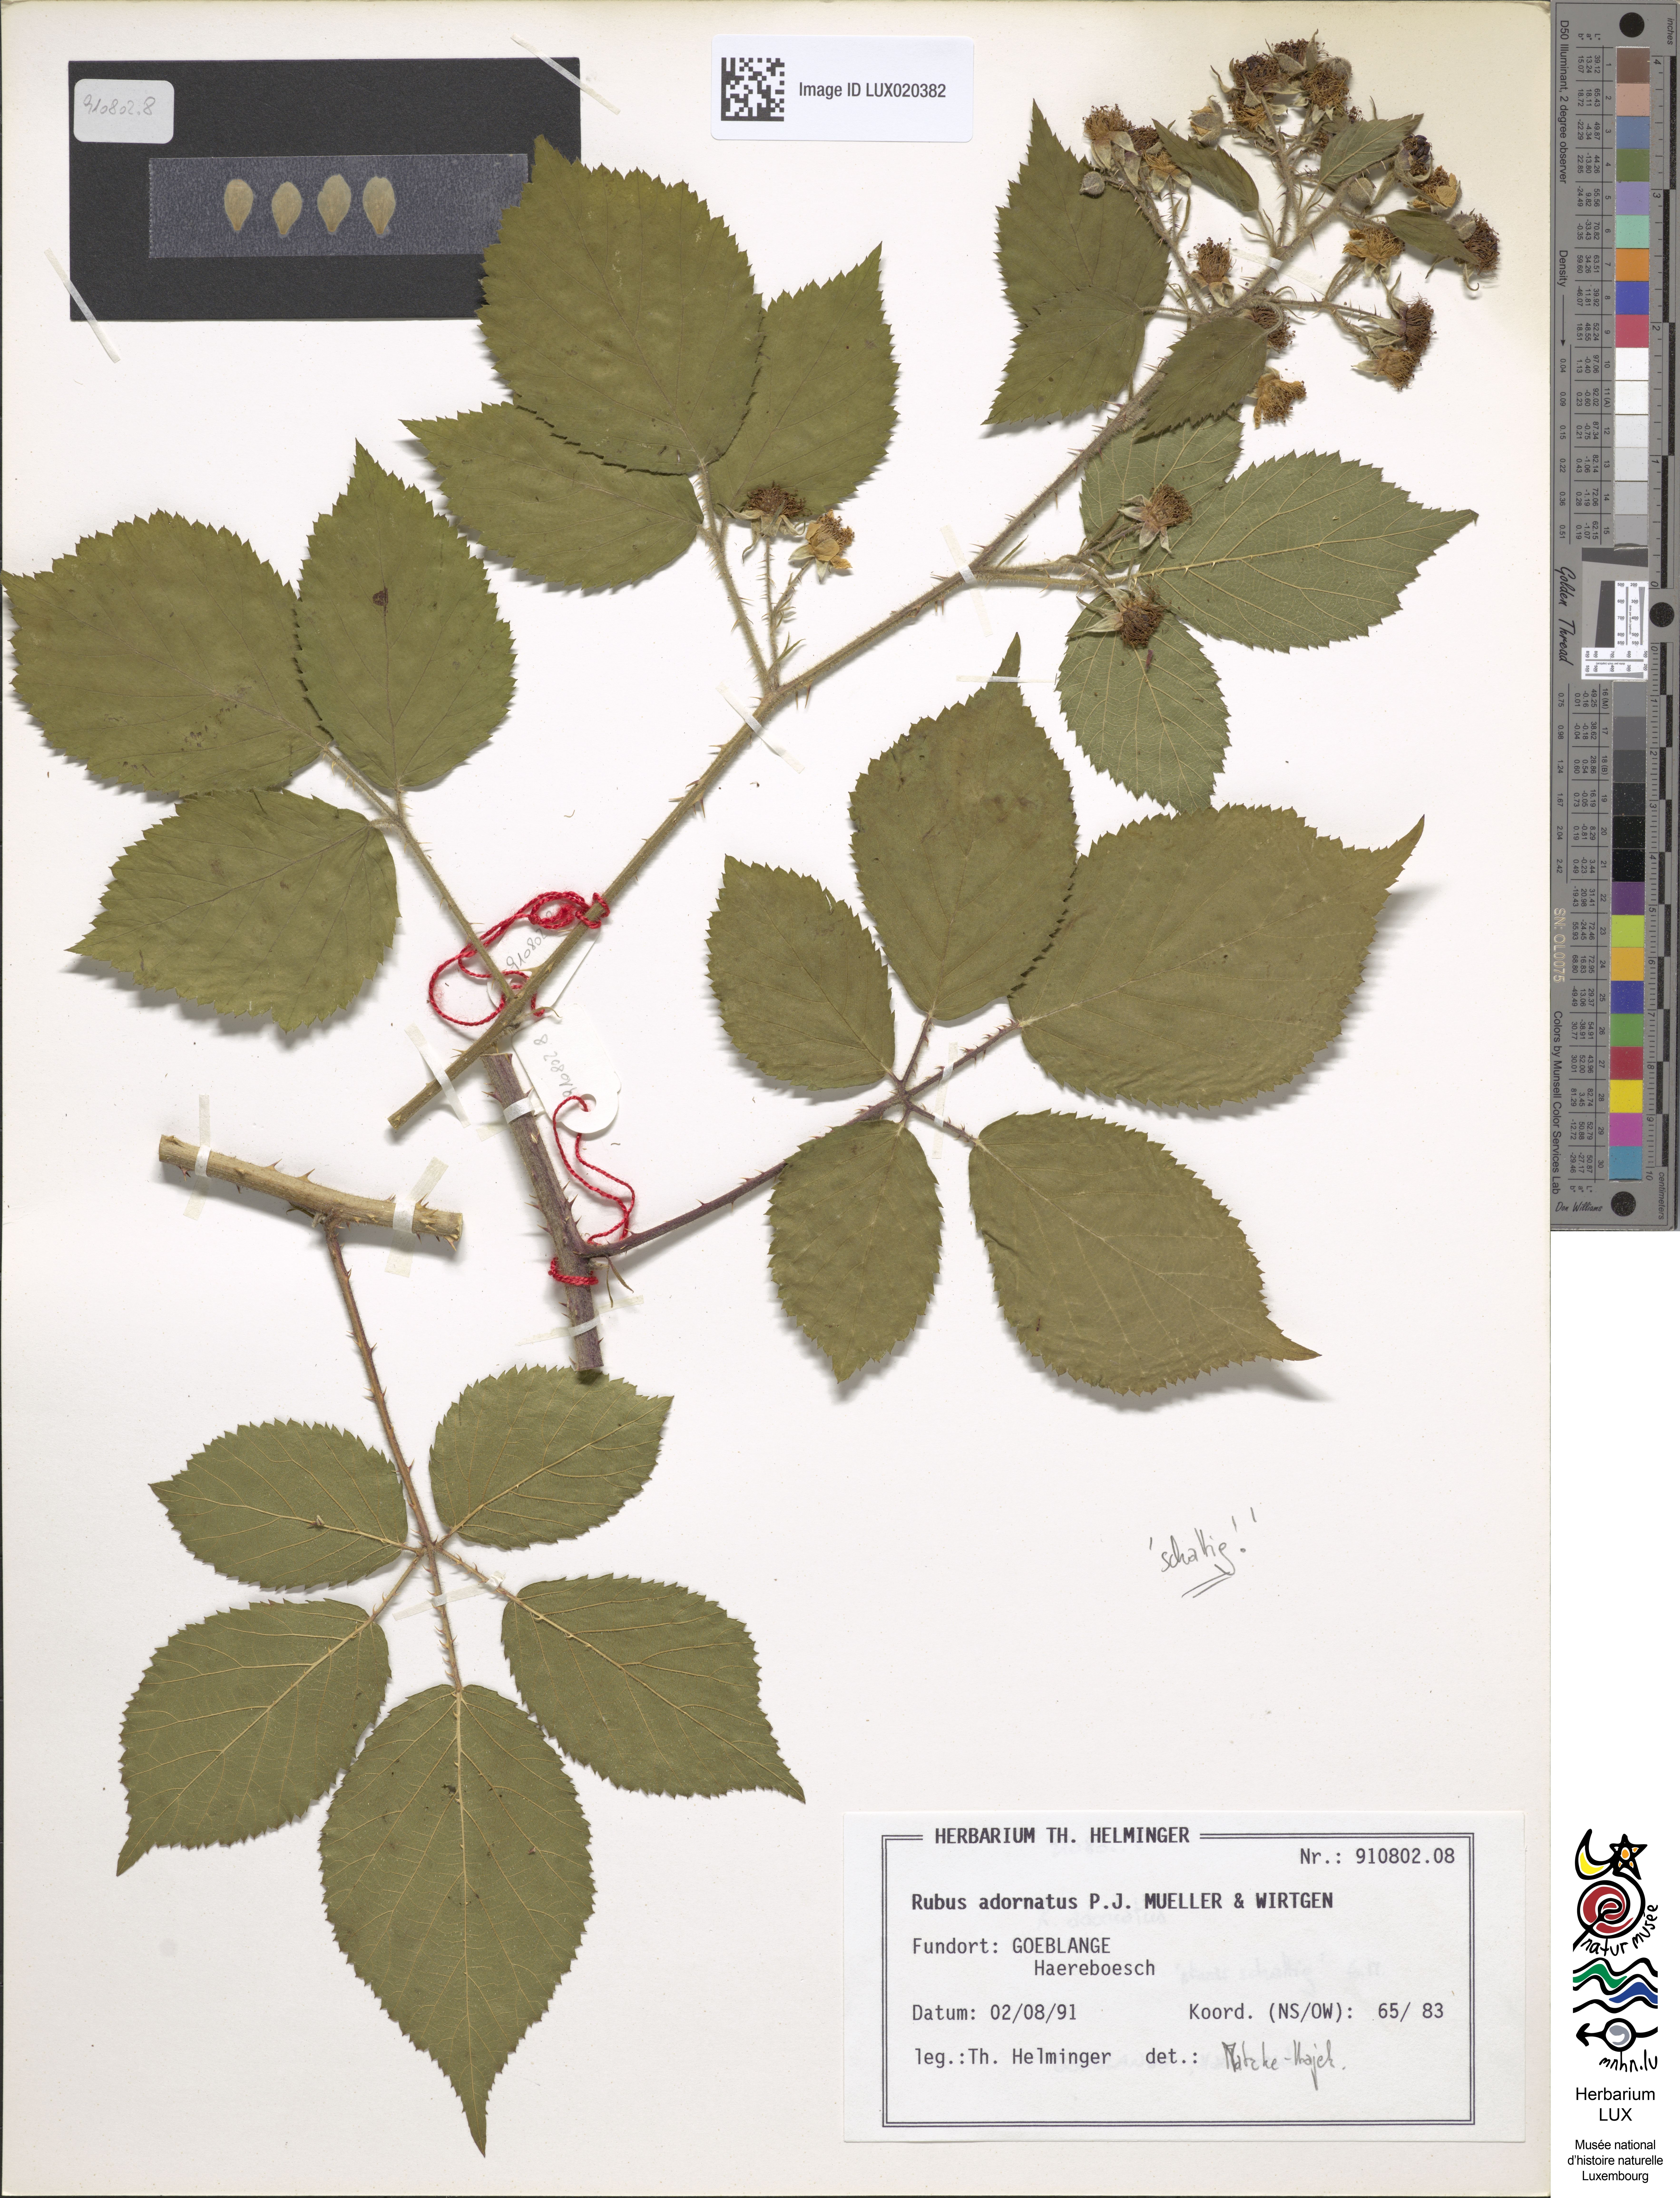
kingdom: Plantae
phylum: Tracheophyta
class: Magnoliopsida
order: Rosales
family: Rosaceae
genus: Rubus
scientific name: Rubus
